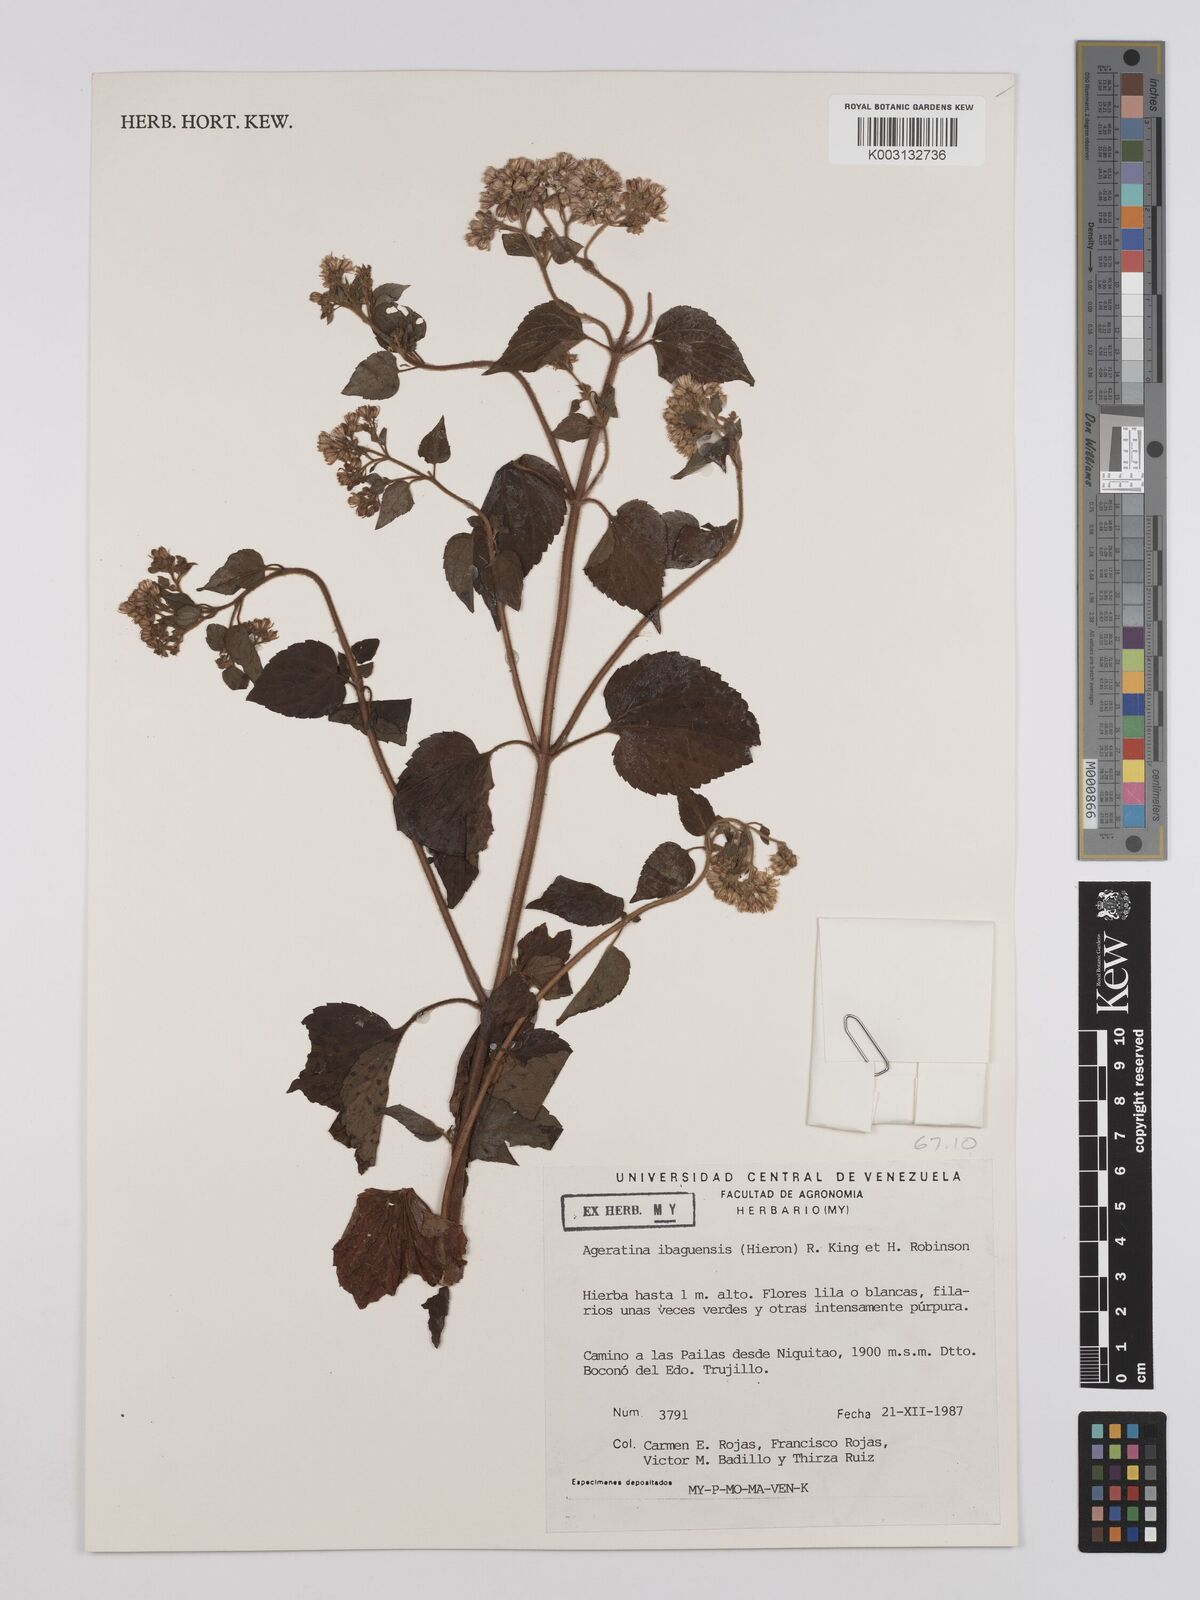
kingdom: Plantae
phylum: Tracheophyta
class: Magnoliopsida
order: Asterales
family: Asteraceae
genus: Ageratina
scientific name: Ageratina ibaguensis
